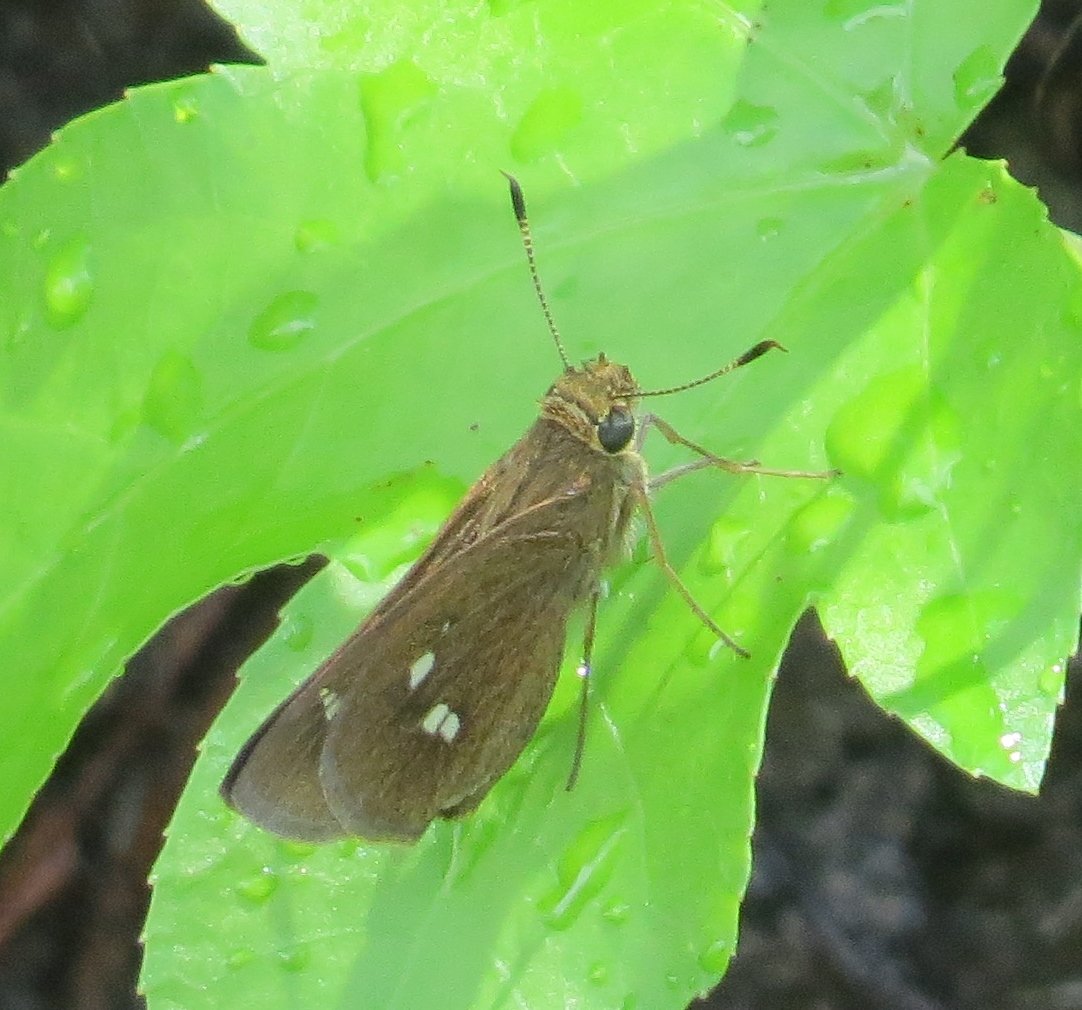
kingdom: Animalia
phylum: Arthropoda
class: Insecta
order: Lepidoptera
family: Hesperiidae
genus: Oligoria
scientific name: Oligoria maculata
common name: Twin-spot Skipper
